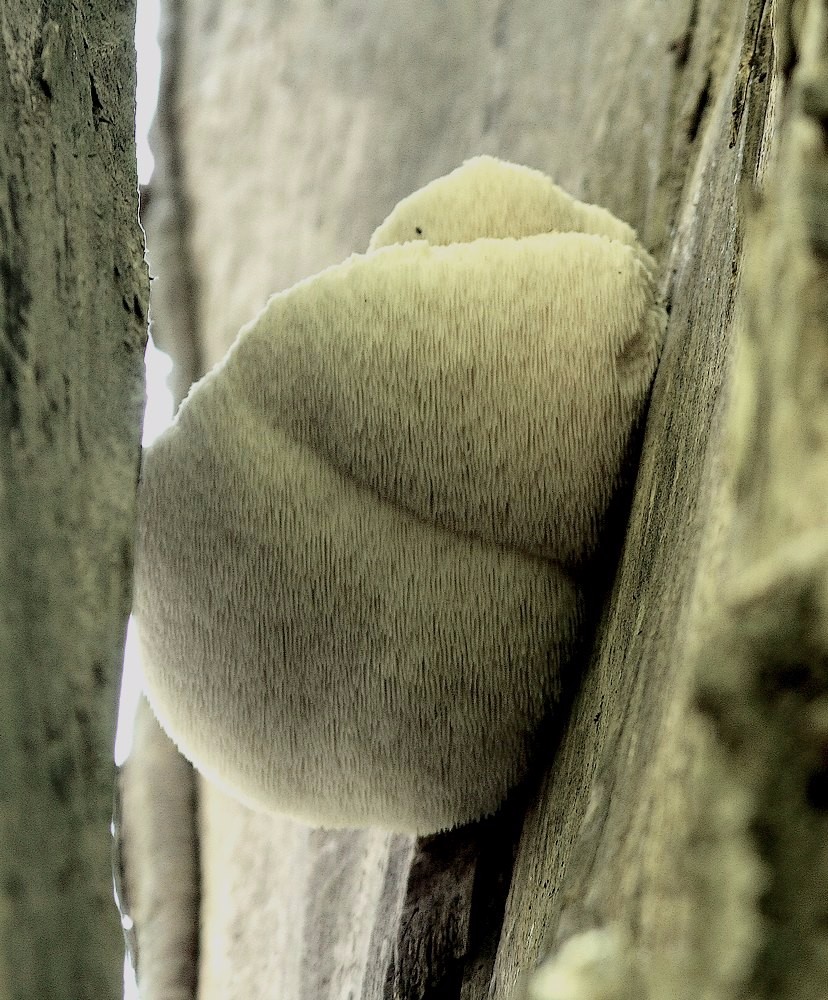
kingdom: Fungi
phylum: Basidiomycota
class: Agaricomycetes
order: Russulales
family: Hericiaceae
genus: Hericium
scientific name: Hericium erinaceus
